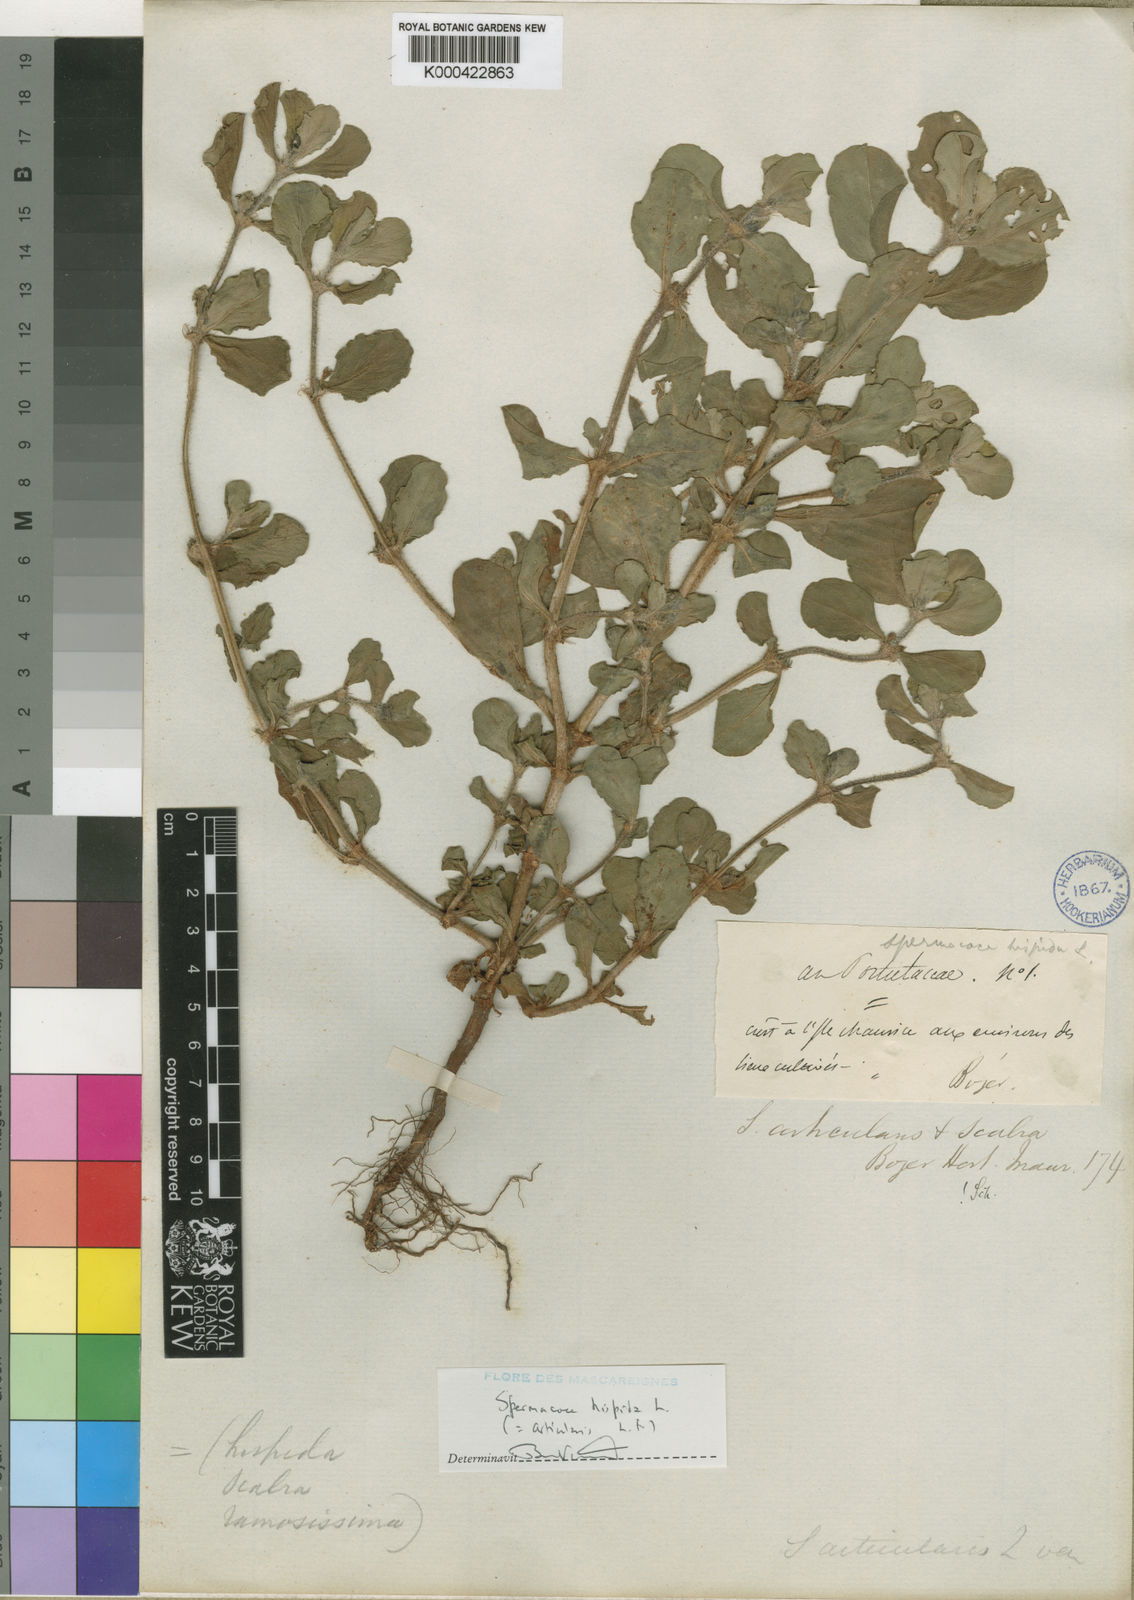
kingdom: Plantae
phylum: Tracheophyta
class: Magnoliopsida
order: Gentianales
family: Rubiaceae
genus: Spermacoce
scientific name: Spermacoce hispida
